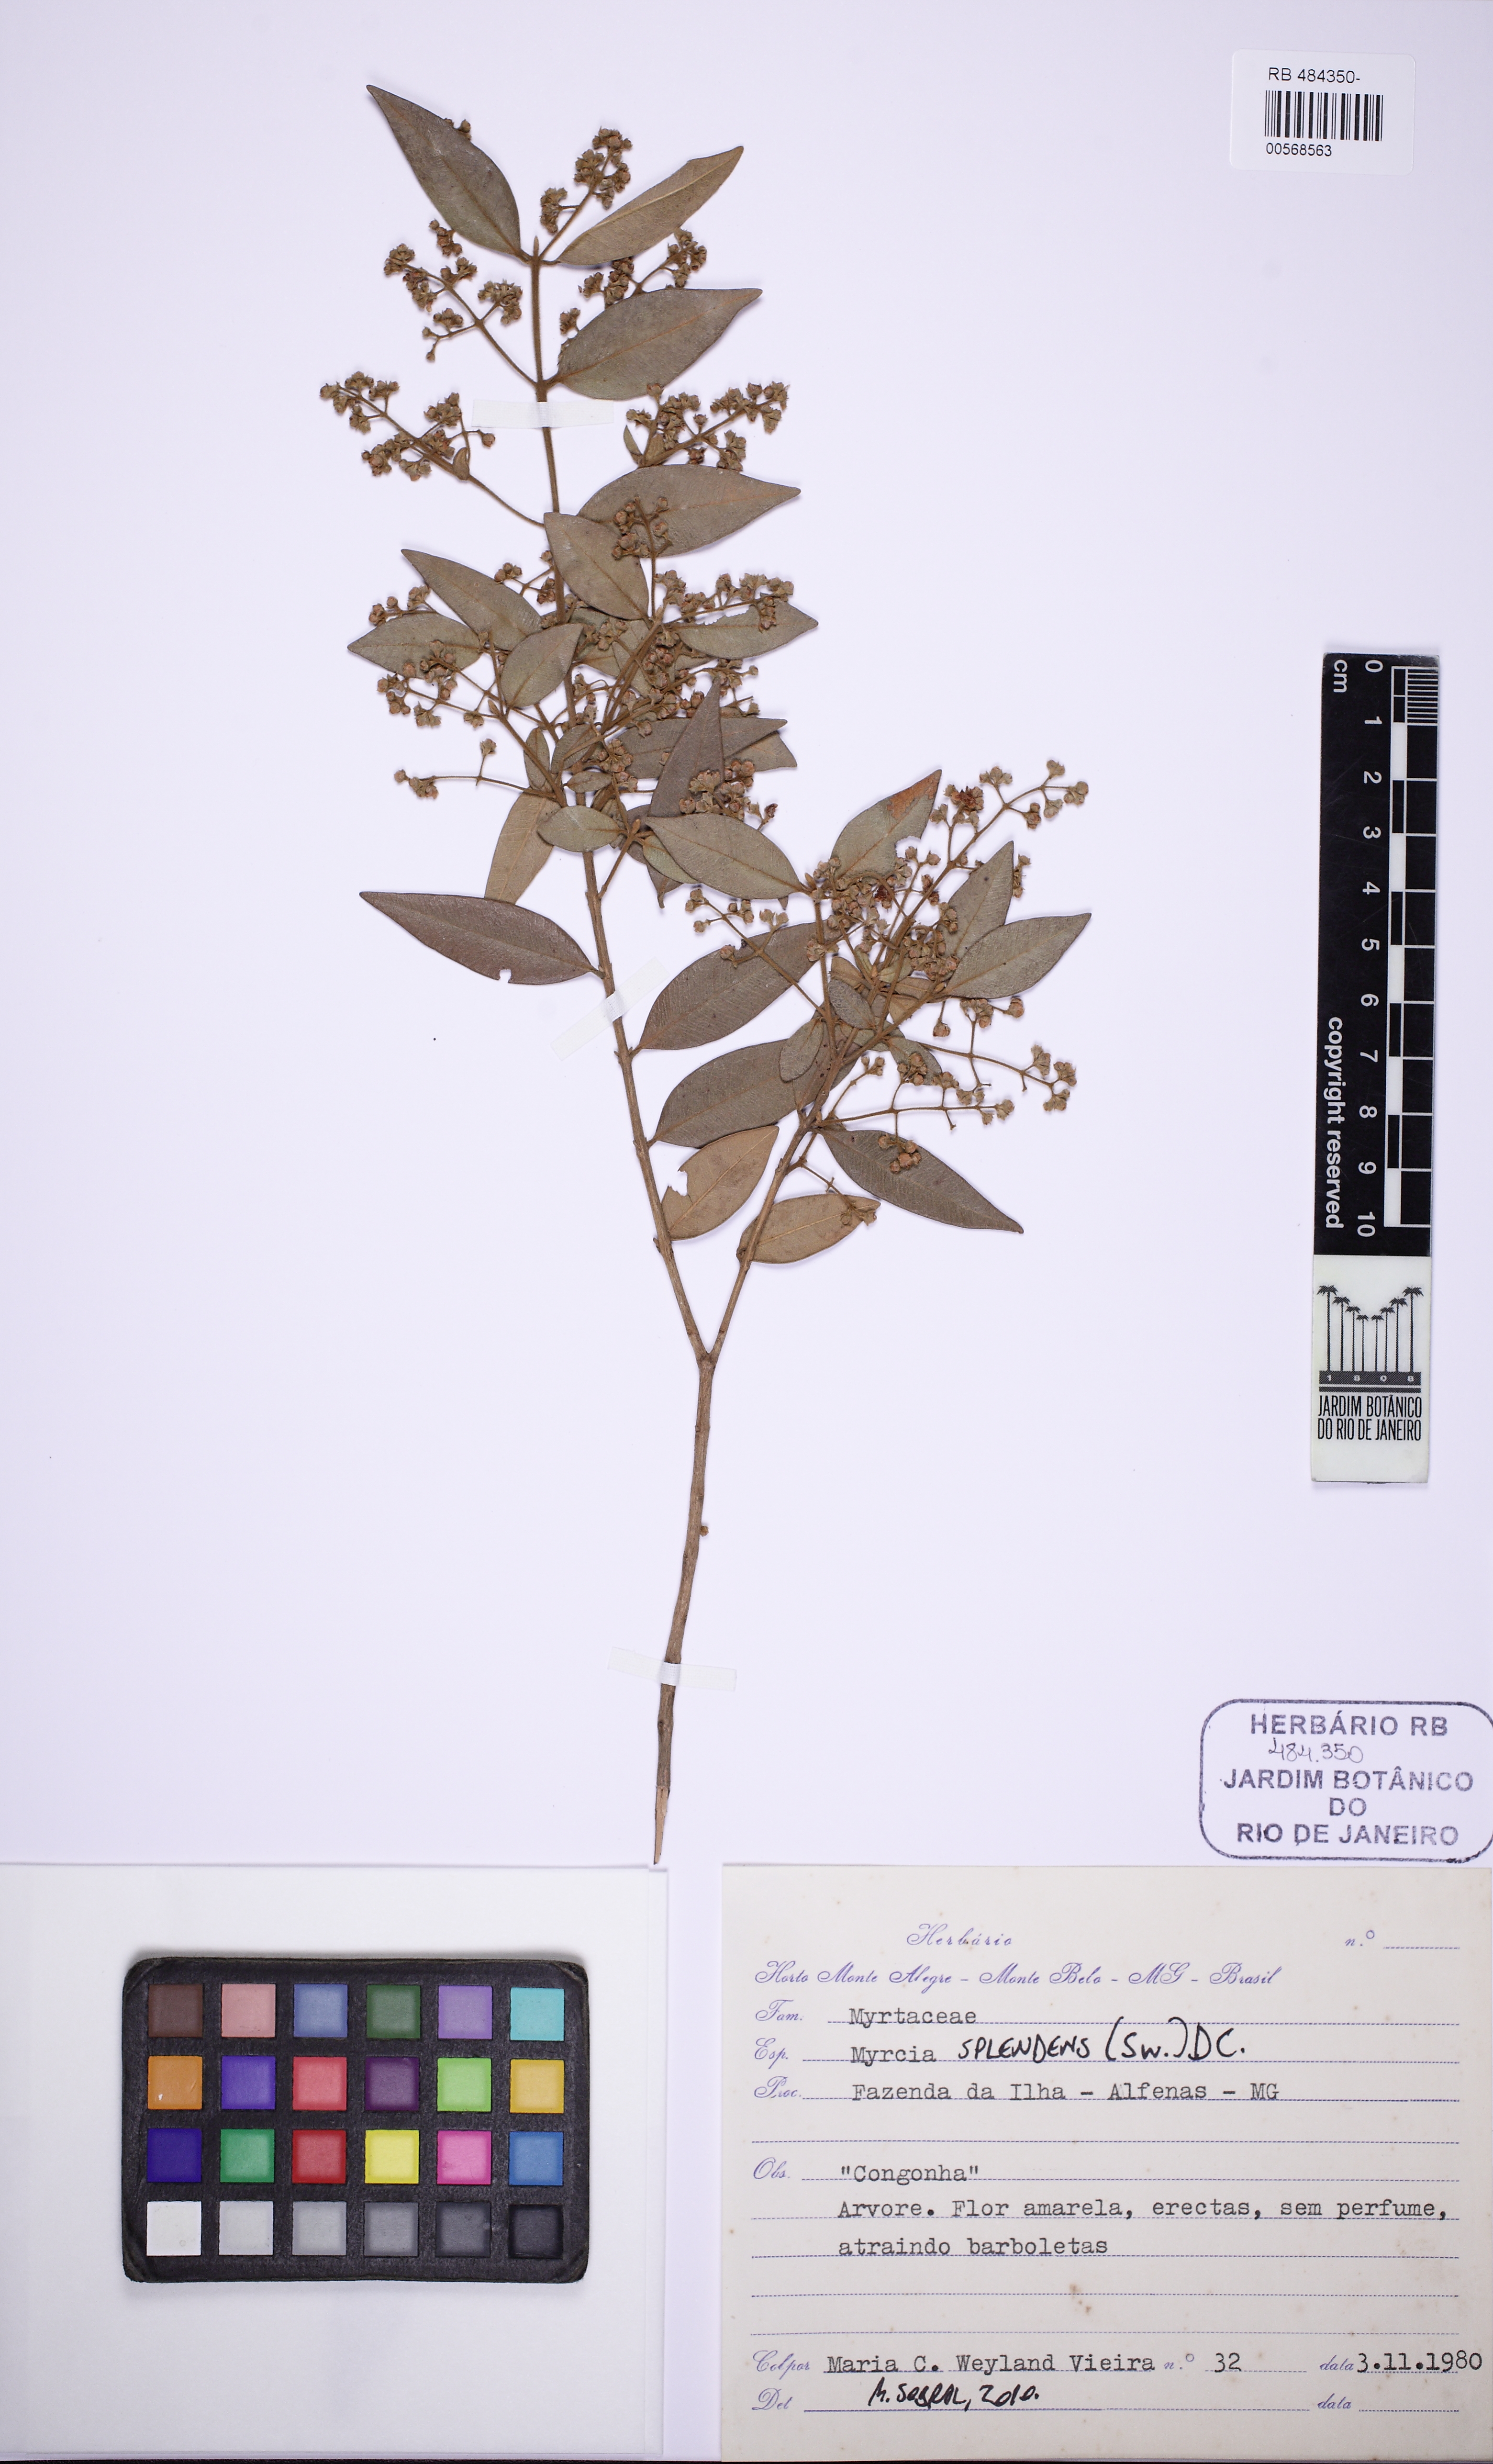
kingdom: Plantae
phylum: Tracheophyta
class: Magnoliopsida
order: Myrtales
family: Myrtaceae
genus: Myrcia
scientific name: Myrcia splendens
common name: Surinam cherry
